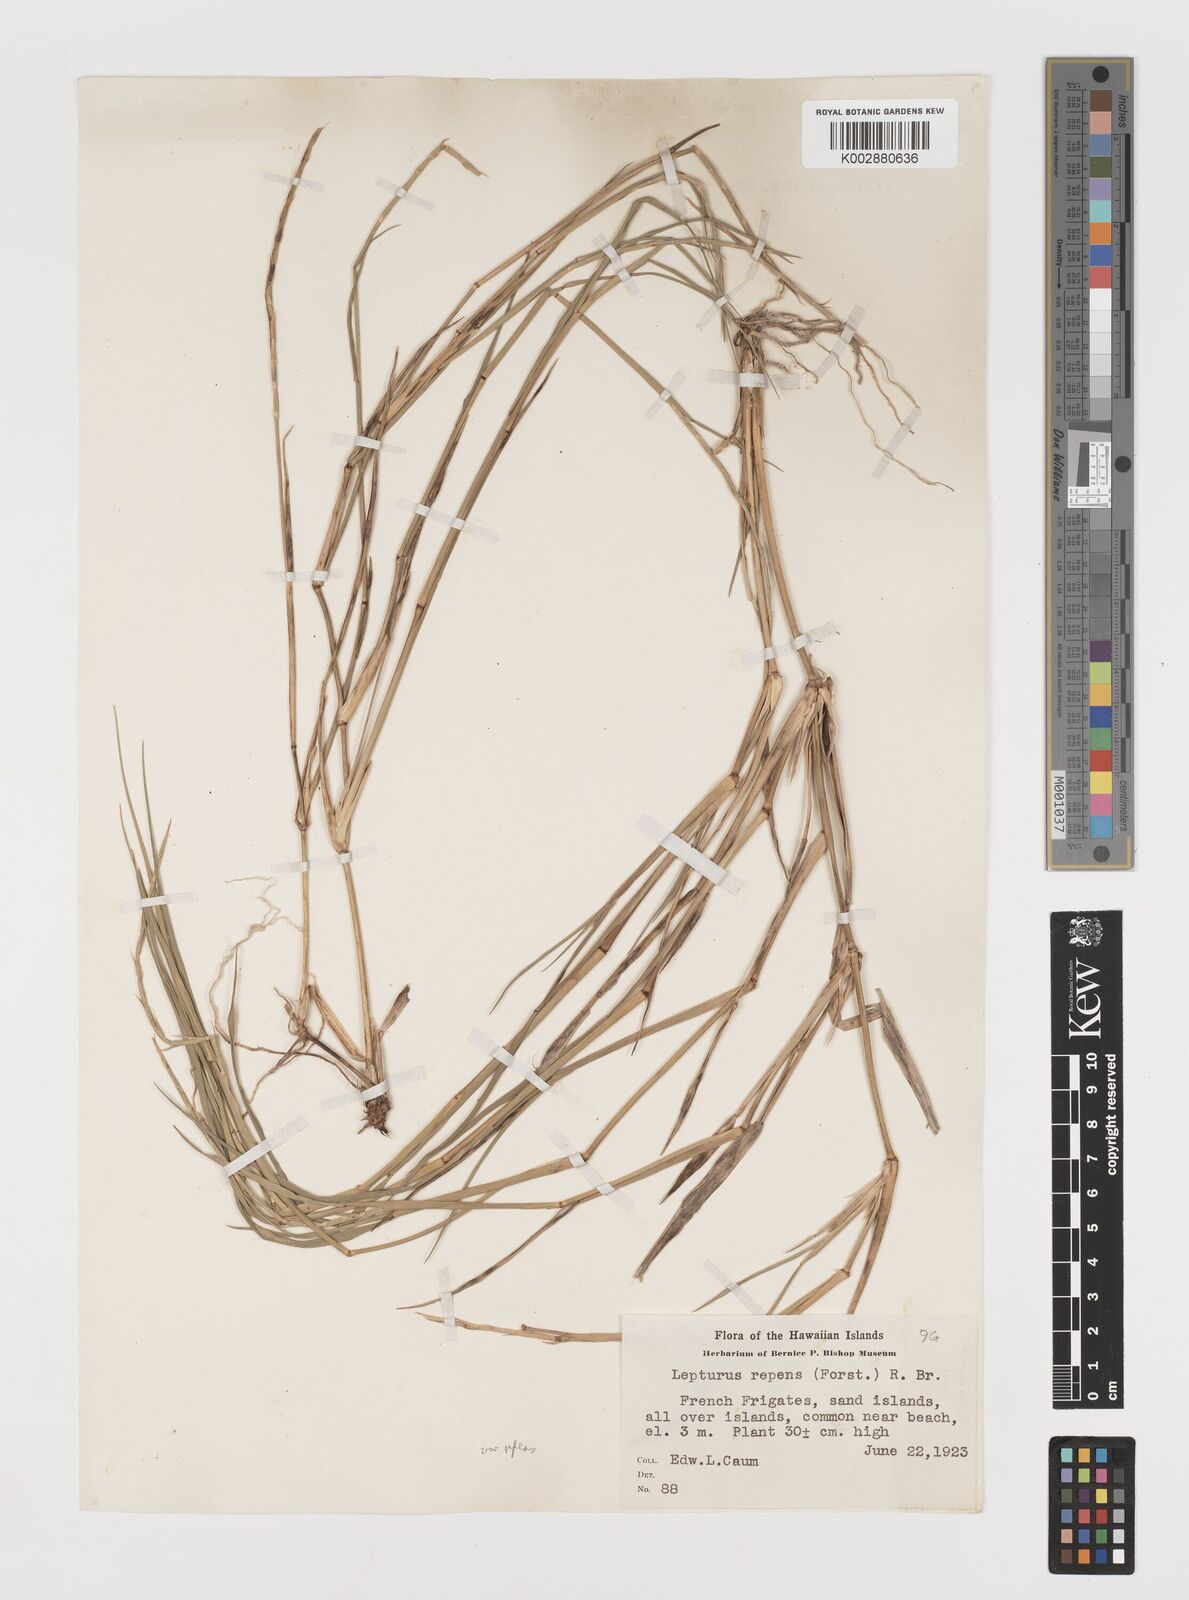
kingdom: Plantae
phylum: Tracheophyta
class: Liliopsida
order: Poales
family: Poaceae
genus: Lepturus
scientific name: Lepturus repens
